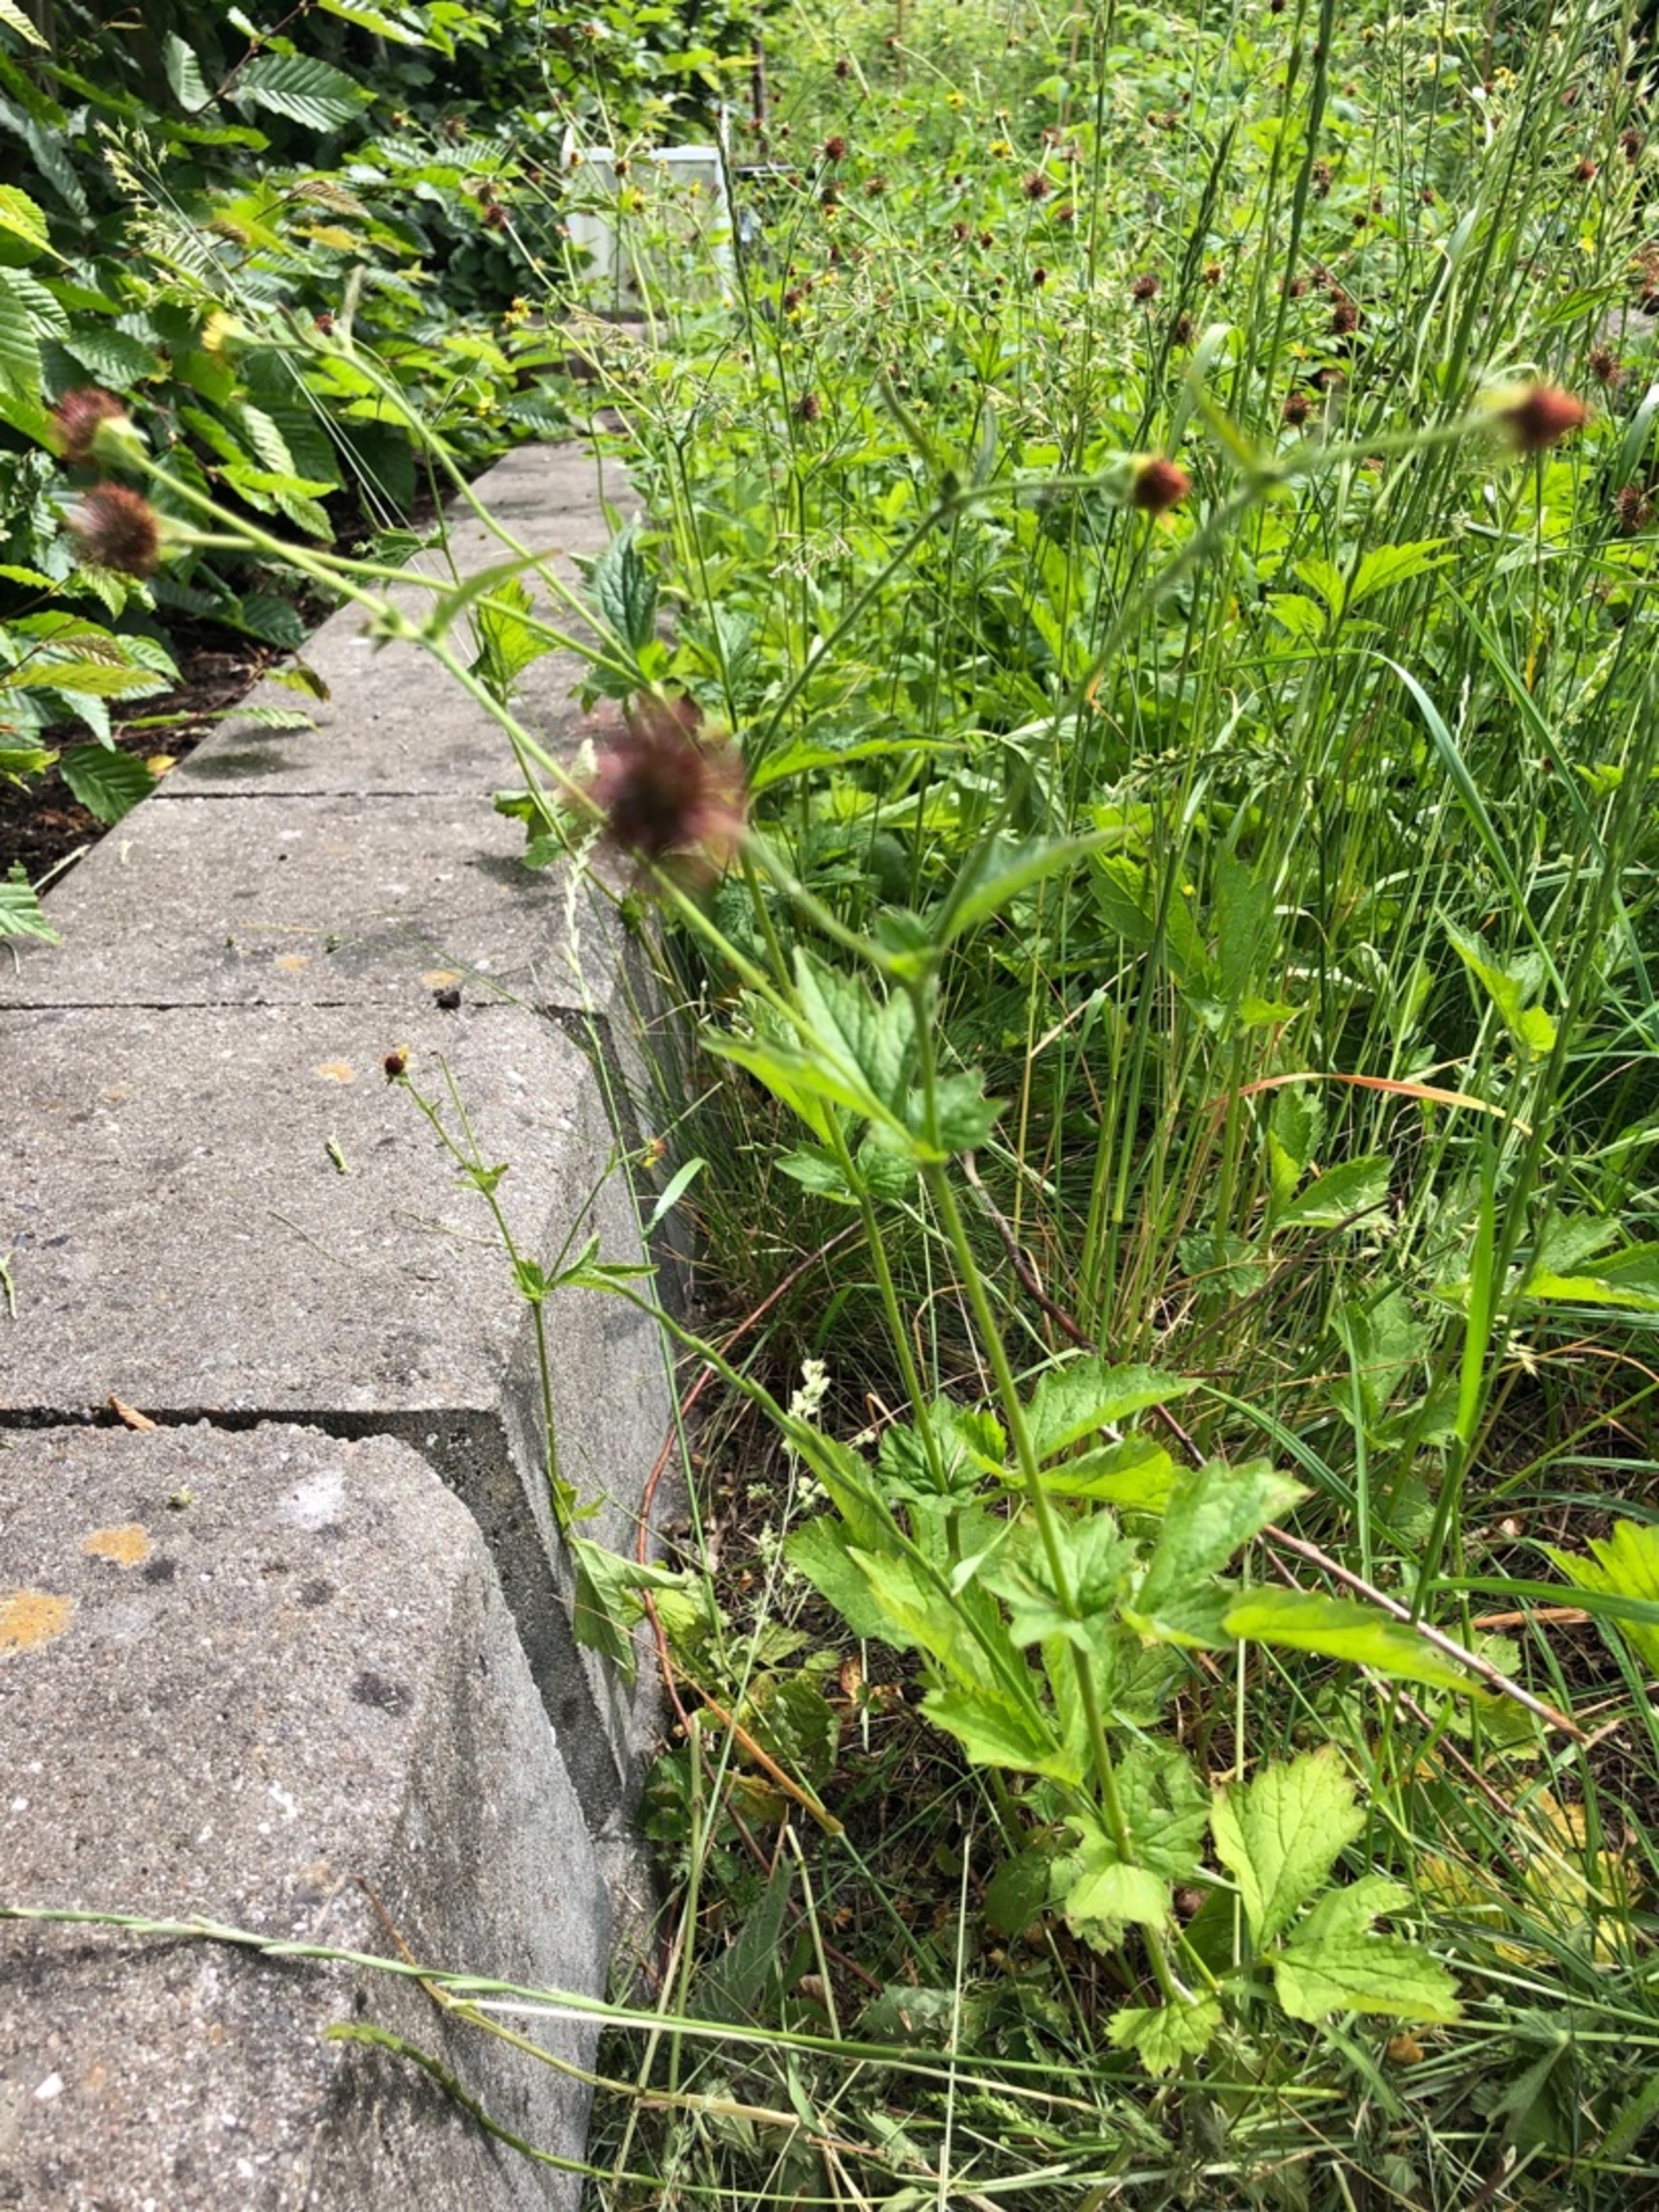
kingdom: Plantae
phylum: Tracheophyta
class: Magnoliopsida
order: Rosales
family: Rosaceae
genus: Geum
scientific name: Geum urbanum
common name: Feber-nellikerod
